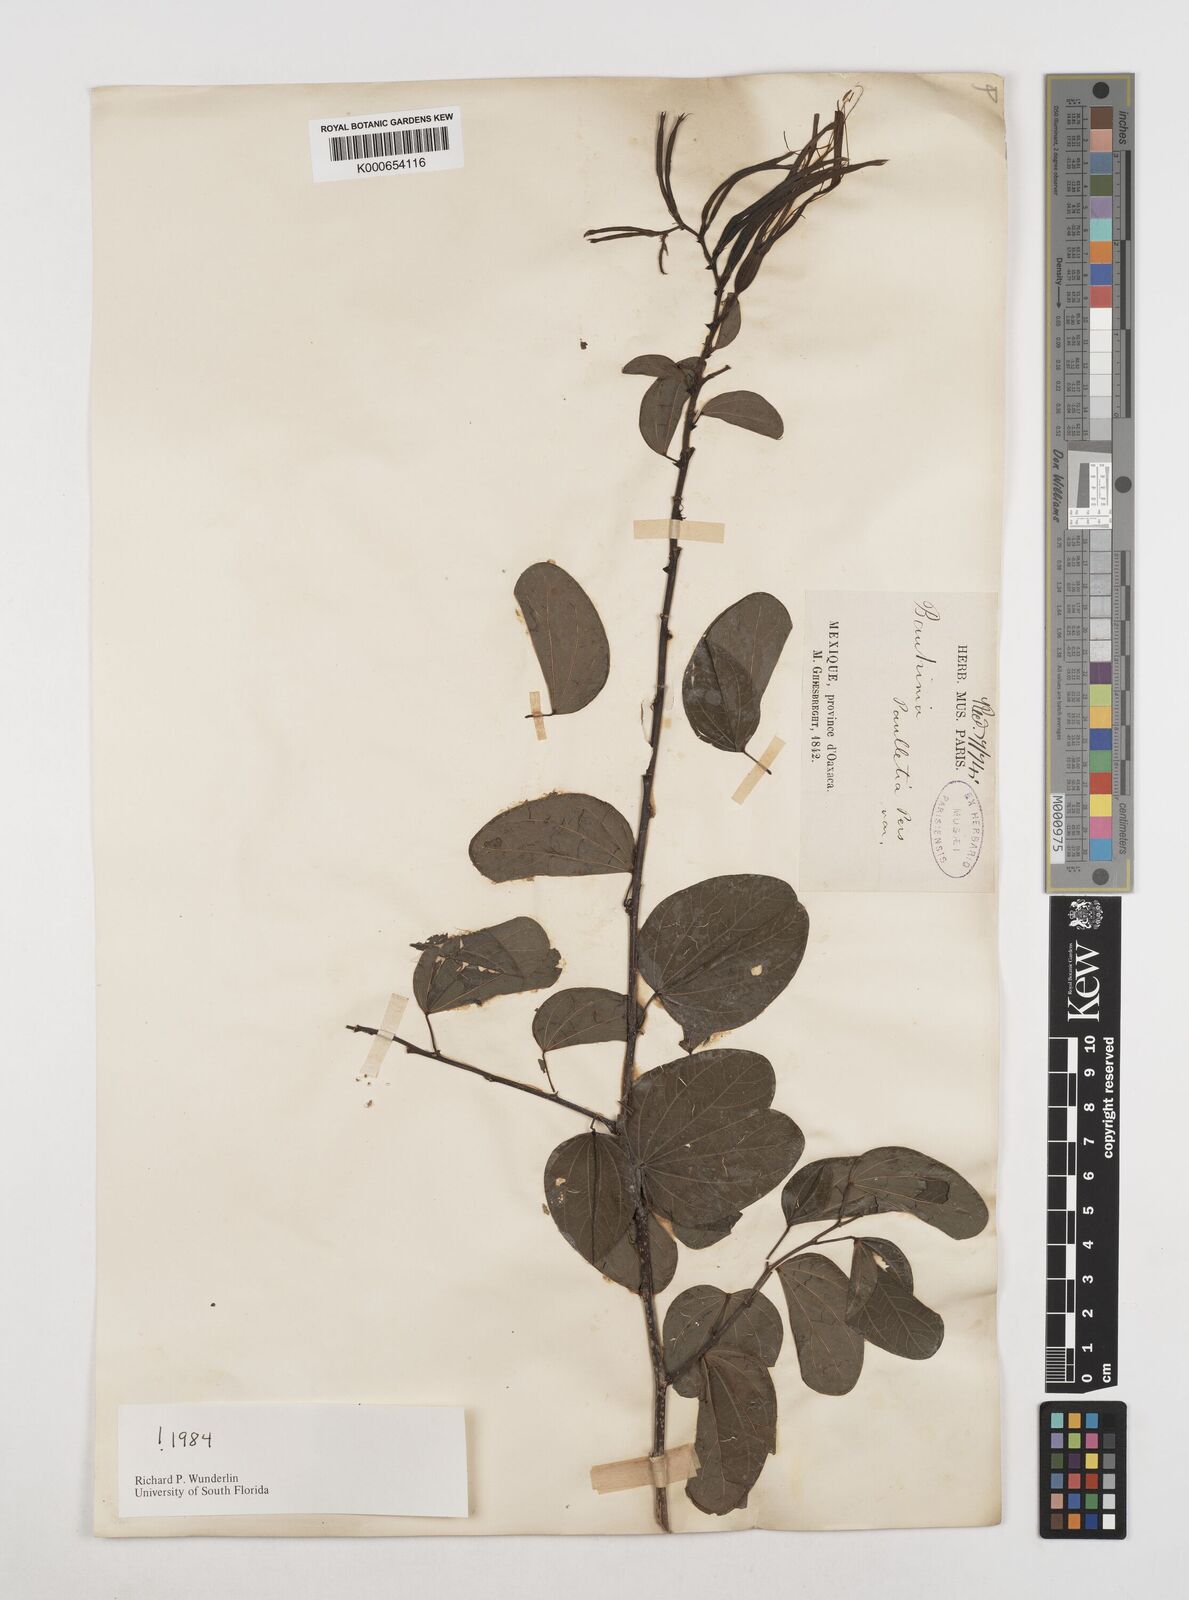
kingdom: Plantae
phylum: Tracheophyta
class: Magnoliopsida
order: Fabales
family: Fabaceae
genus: Bauhinia
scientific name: Bauhinia pauletia
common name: Railway-fence bauhinia
